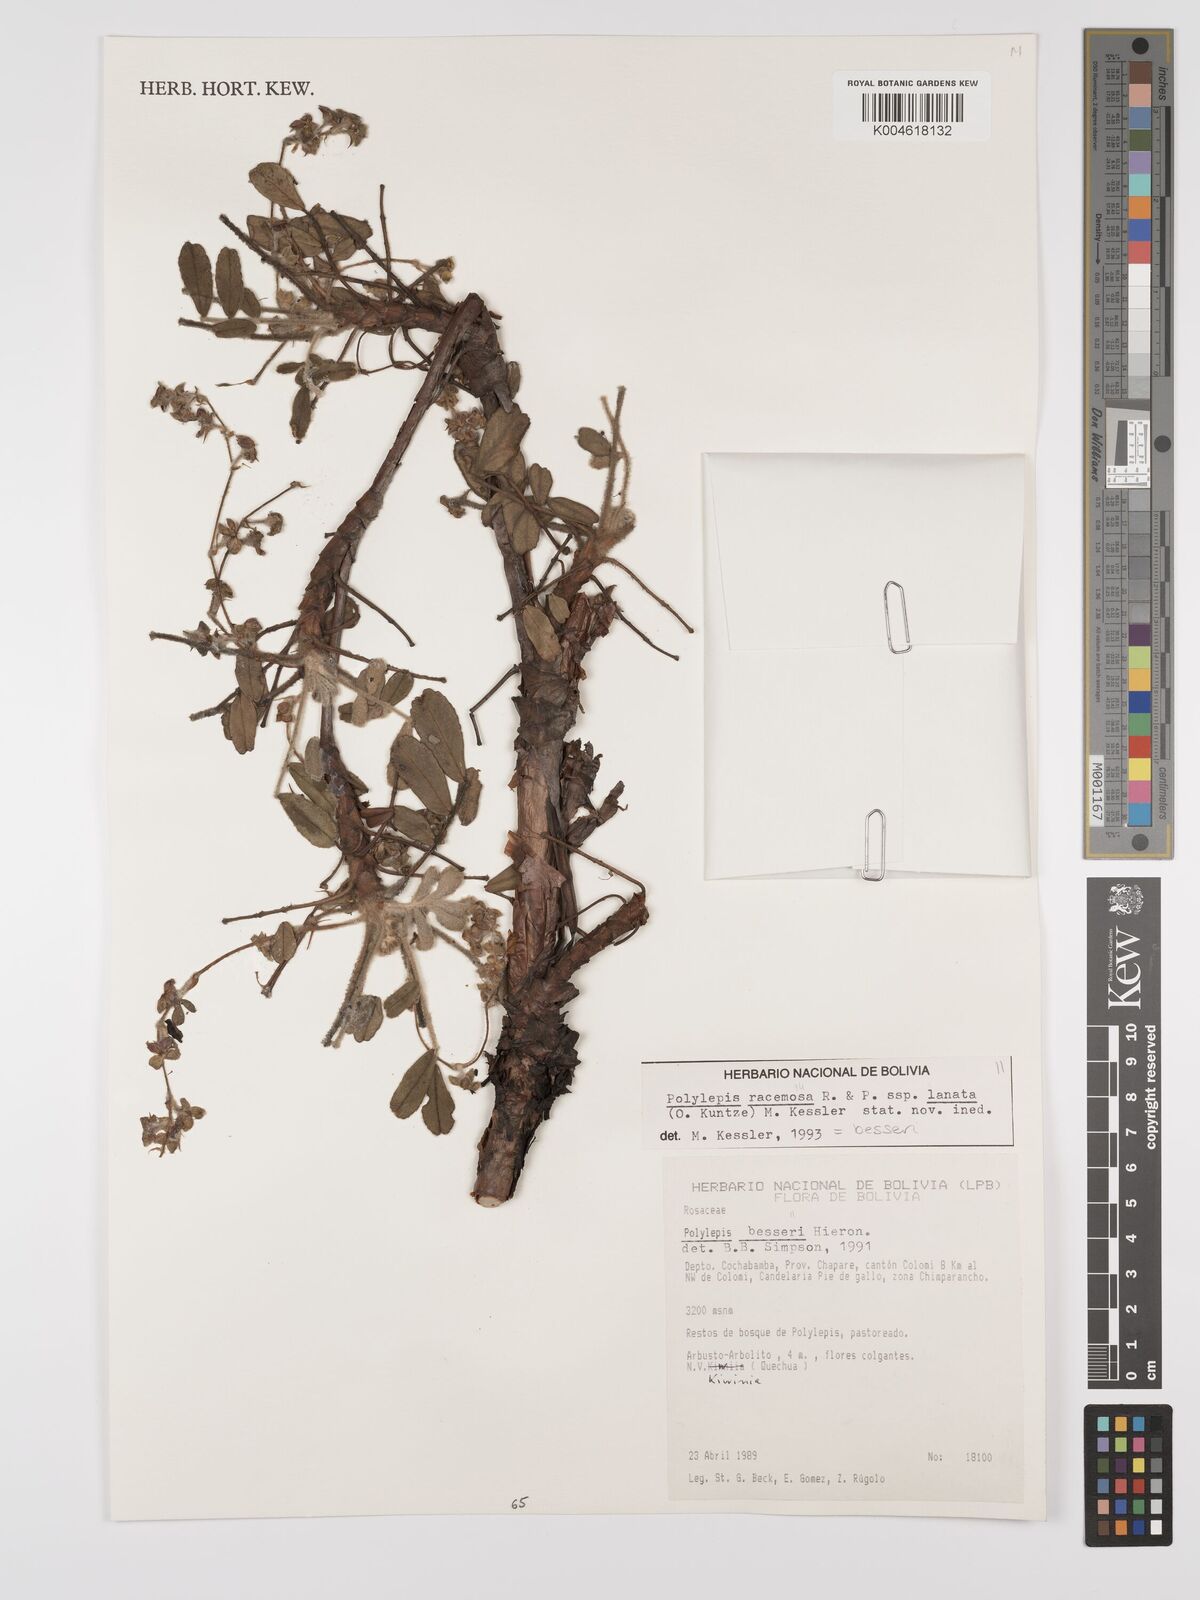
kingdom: Plantae
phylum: Tracheophyta
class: Magnoliopsida
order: Rosales
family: Rosaceae
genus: Polylepis
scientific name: Polylepis
